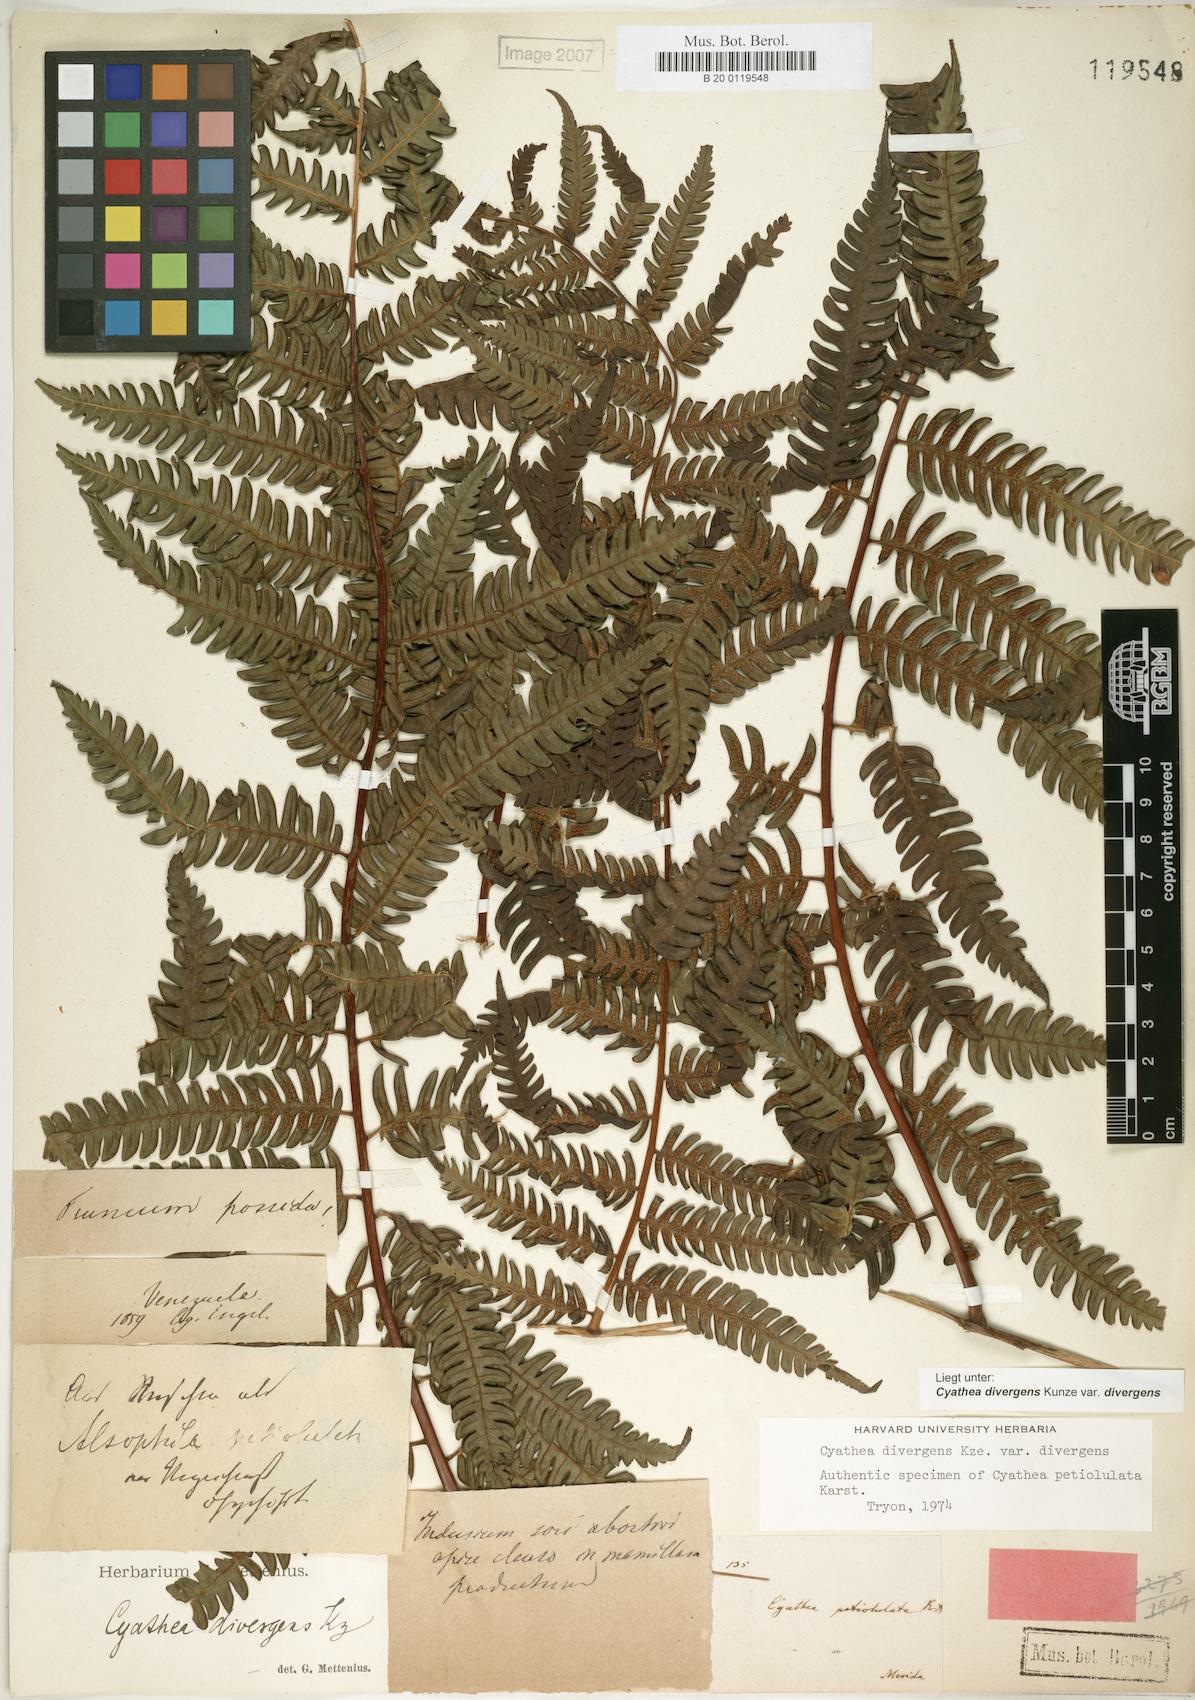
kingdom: Plantae
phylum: Tracheophyta
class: Polypodiopsida
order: Cyatheales
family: Cyatheaceae
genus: Cyathea
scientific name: Cyathea divergens
